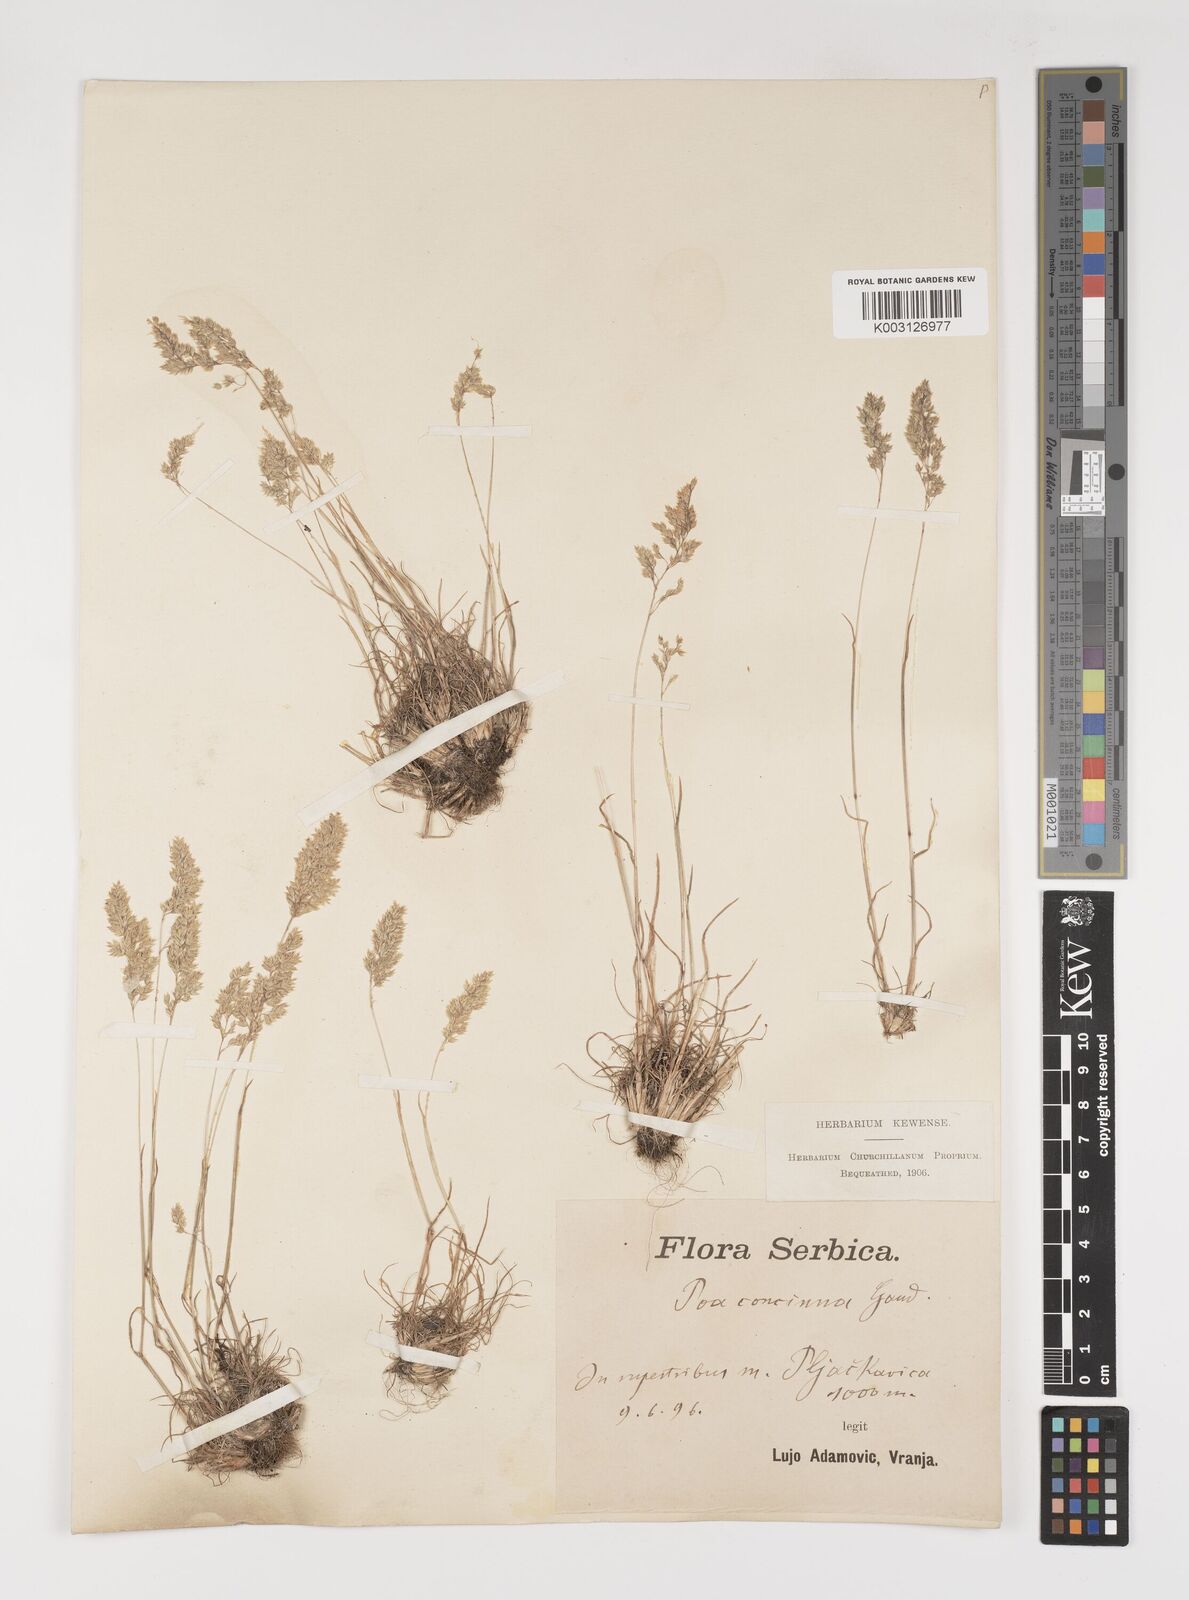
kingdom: Plantae
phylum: Tracheophyta
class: Liliopsida
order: Poales
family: Poaceae
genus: Poa
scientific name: Poa perconcinna
